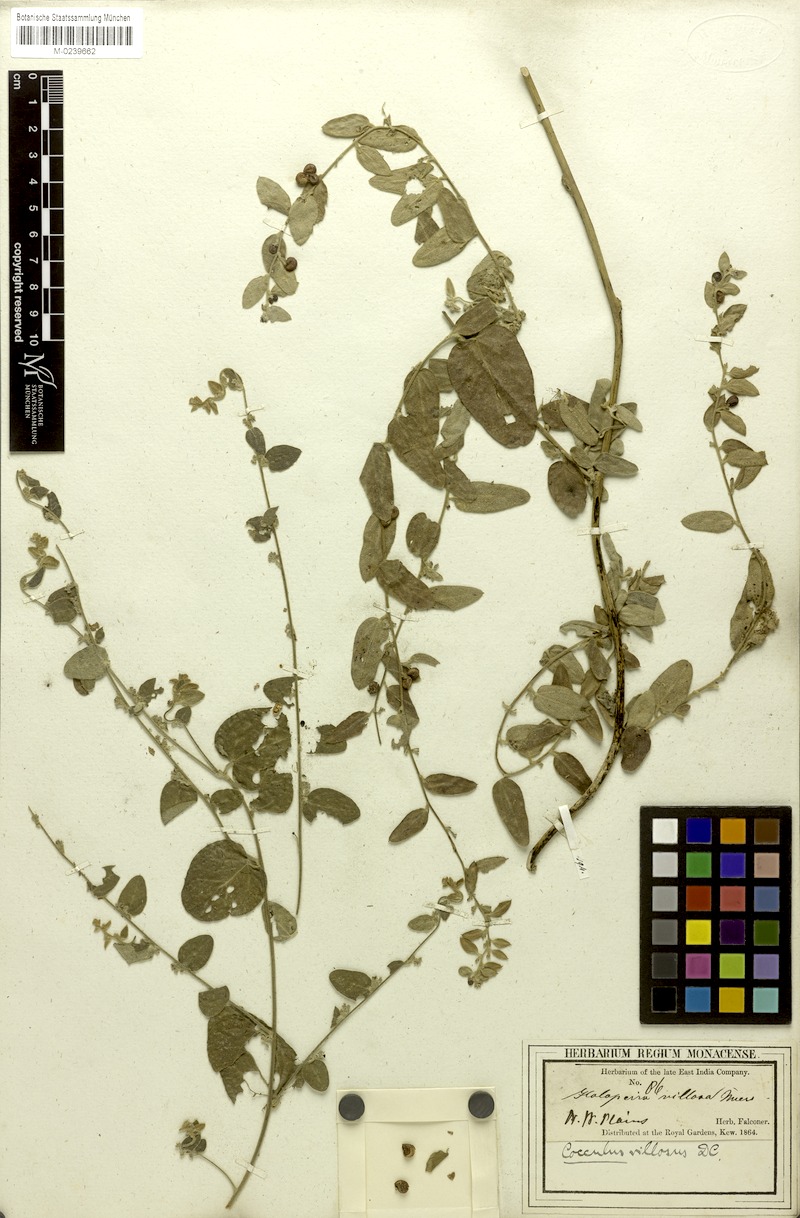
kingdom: Plantae
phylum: Tracheophyta
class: Magnoliopsida
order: Ranunculales
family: Menispermaceae
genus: Cocculus
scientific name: Cocculus hirsutus
